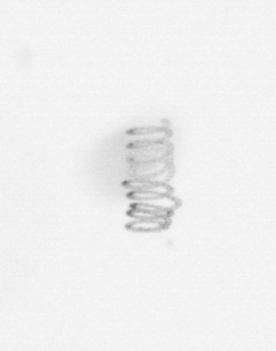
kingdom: Chromista
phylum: Ochrophyta
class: Bacillariophyceae
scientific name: Bacillariophyceae
